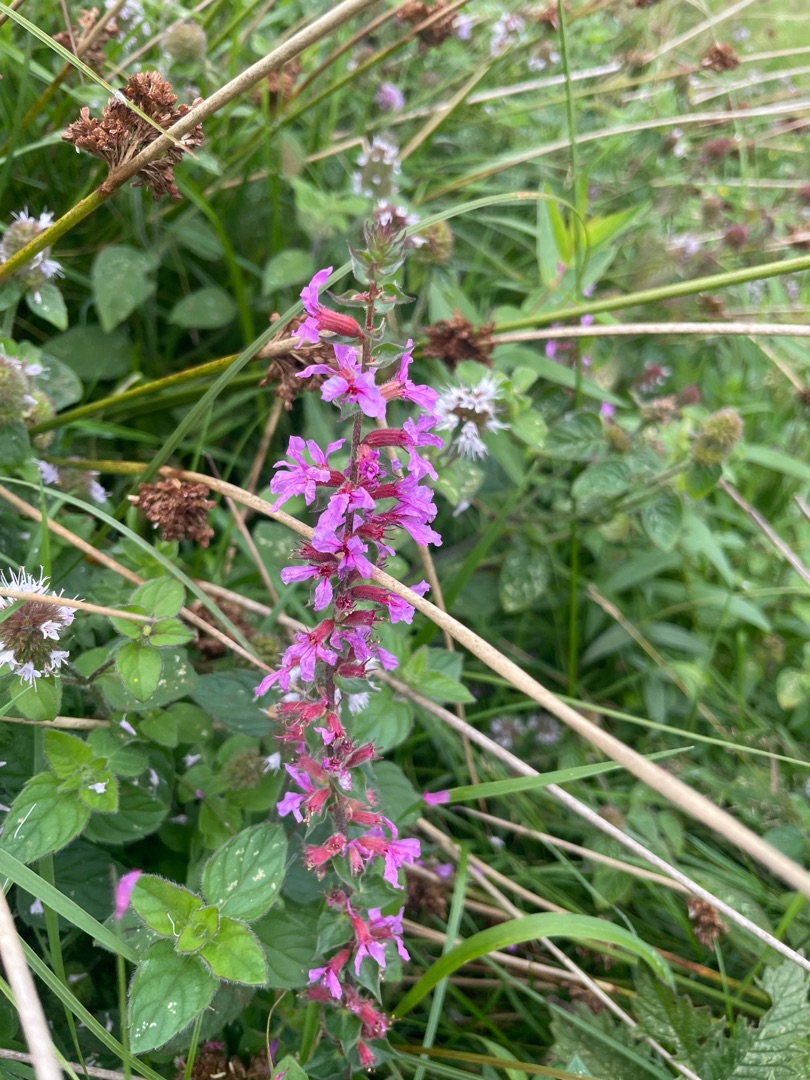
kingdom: Plantae
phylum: Tracheophyta
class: Magnoliopsida
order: Myrtales
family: Lythraceae
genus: Lythrum
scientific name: Lythrum salicaria
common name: Kattehale
